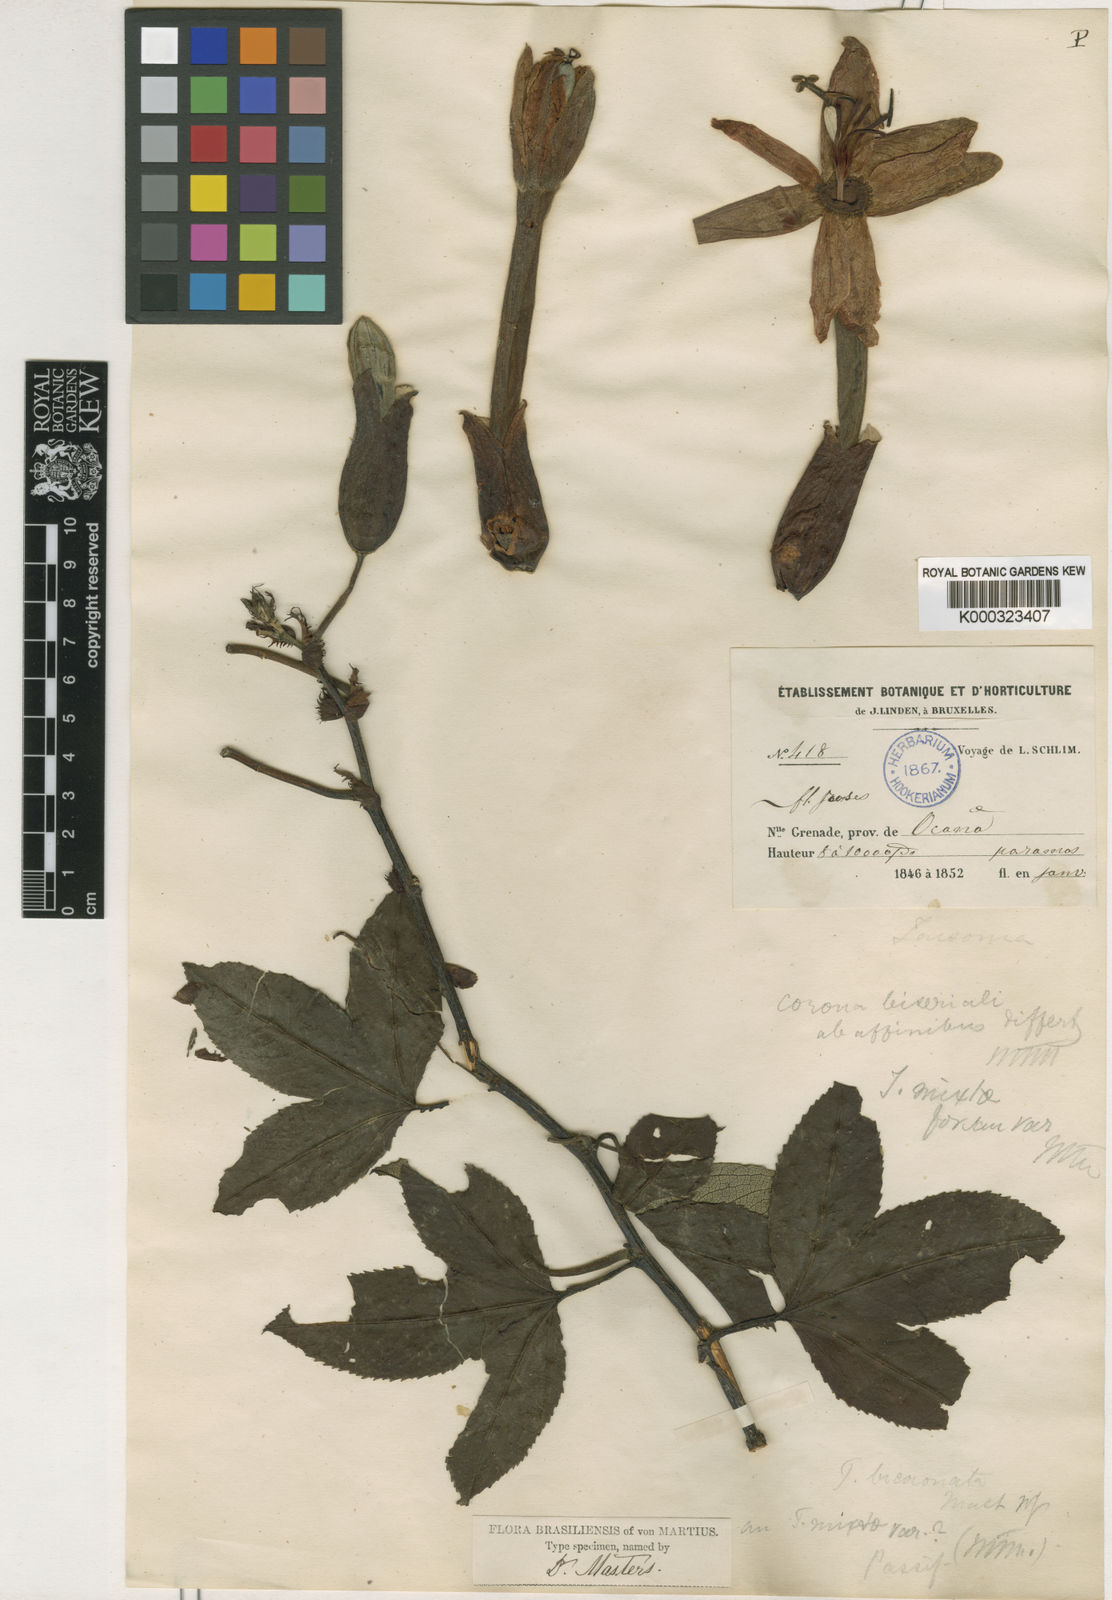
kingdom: Plantae
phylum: Tracheophyta
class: Magnoliopsida
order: Malpighiales
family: Passifloraceae
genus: Passiflora
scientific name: Passiflora mixta
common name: Passion flower
